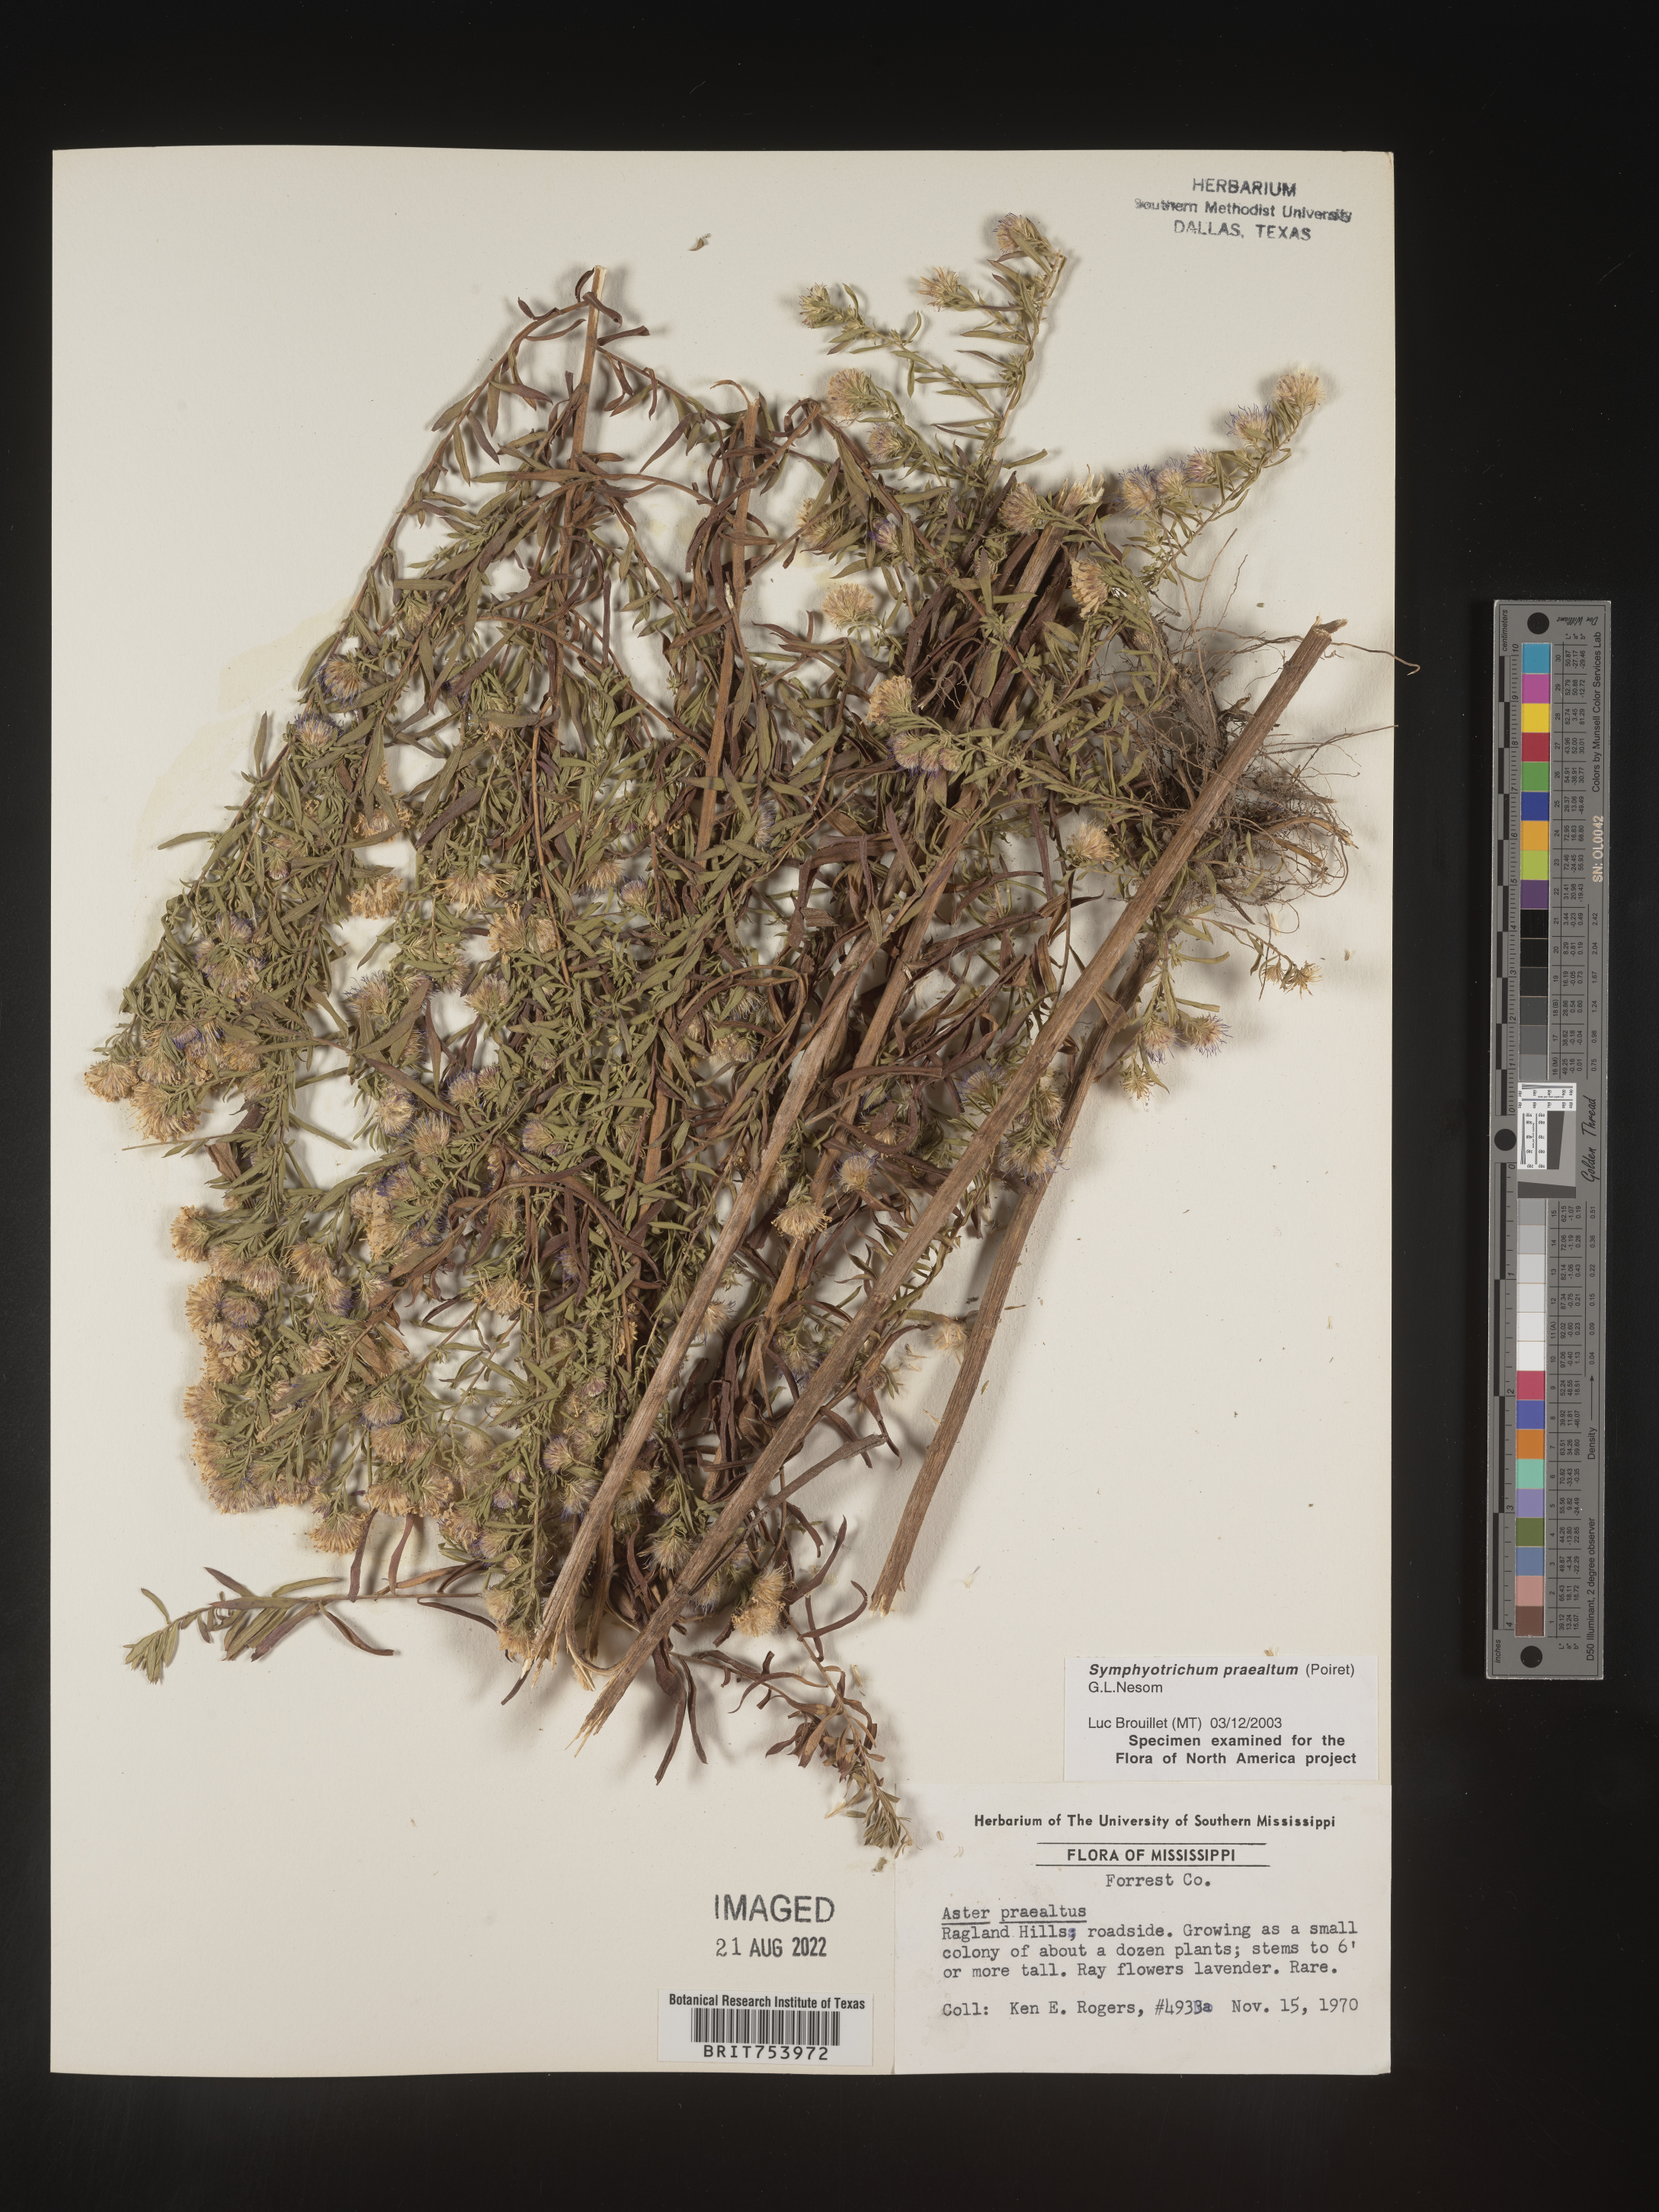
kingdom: Plantae
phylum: Tracheophyta
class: Magnoliopsida
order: Asterales
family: Asteraceae
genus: Symphyotrichum
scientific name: Symphyotrichum praealtum
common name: Willow aster
